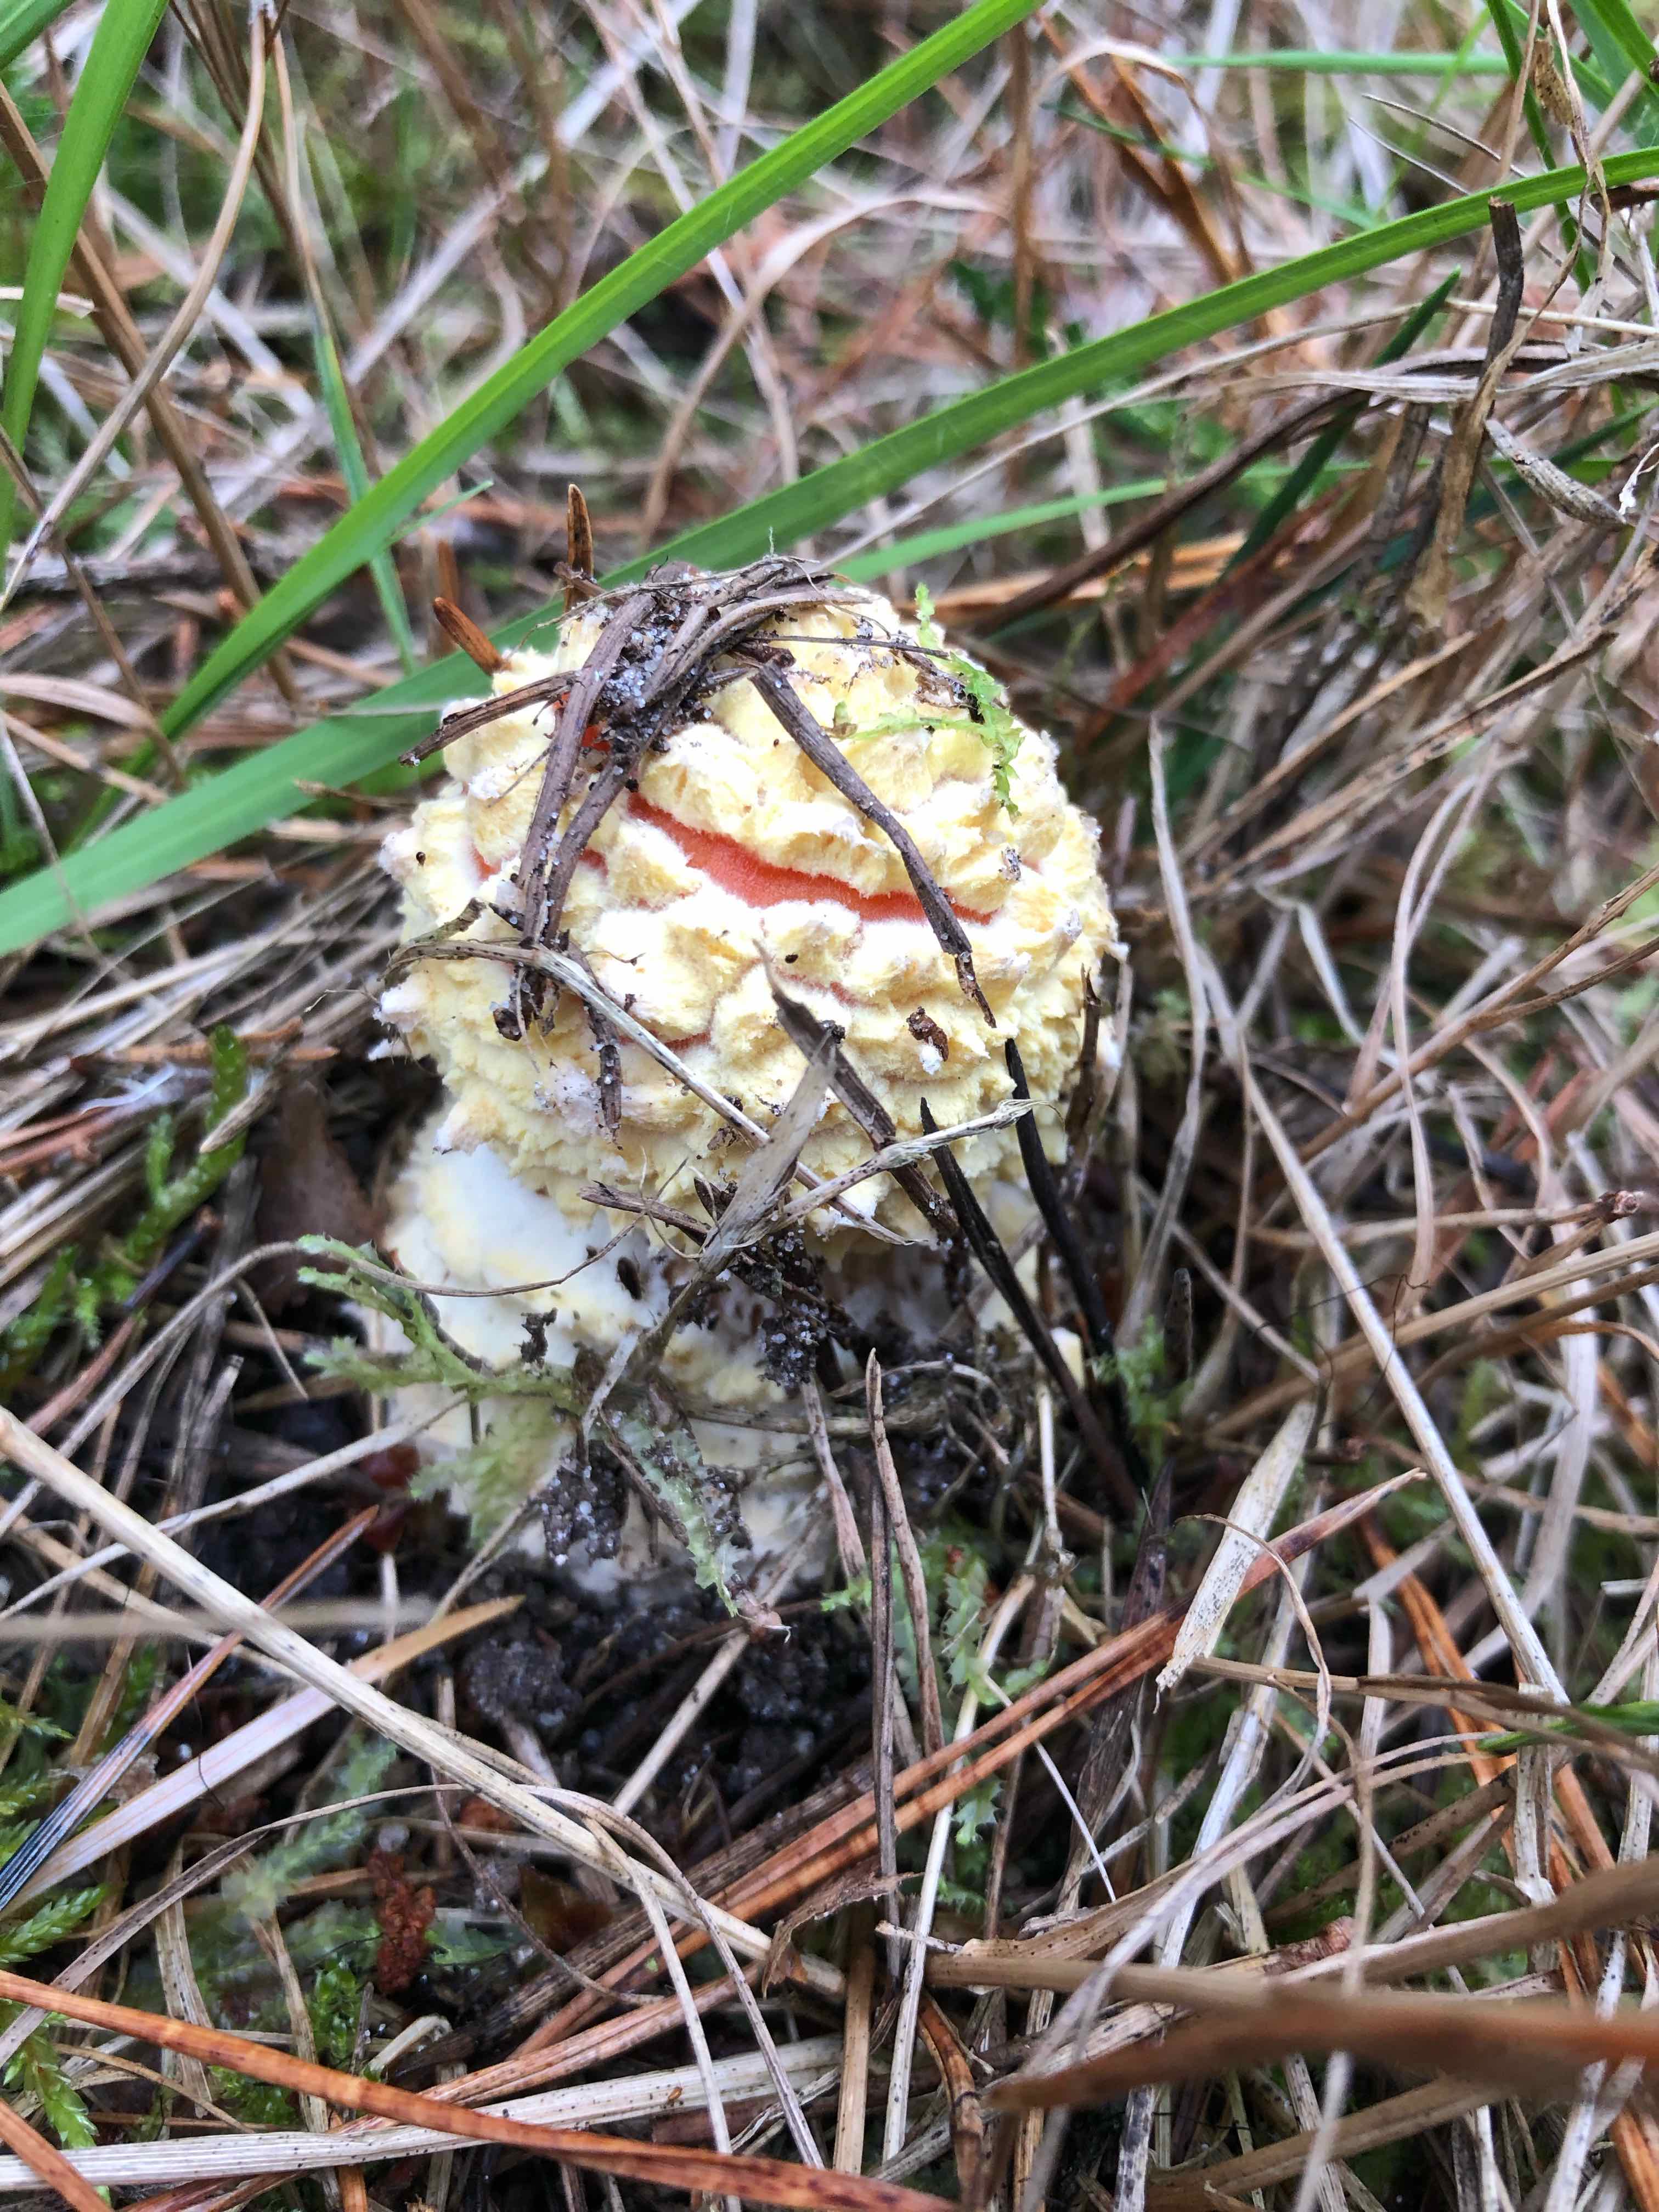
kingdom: Fungi
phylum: Basidiomycota
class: Agaricomycetes
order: Agaricales
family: Amanitaceae
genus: Amanita
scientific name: Amanita muscaria
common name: rød fluesvamp
